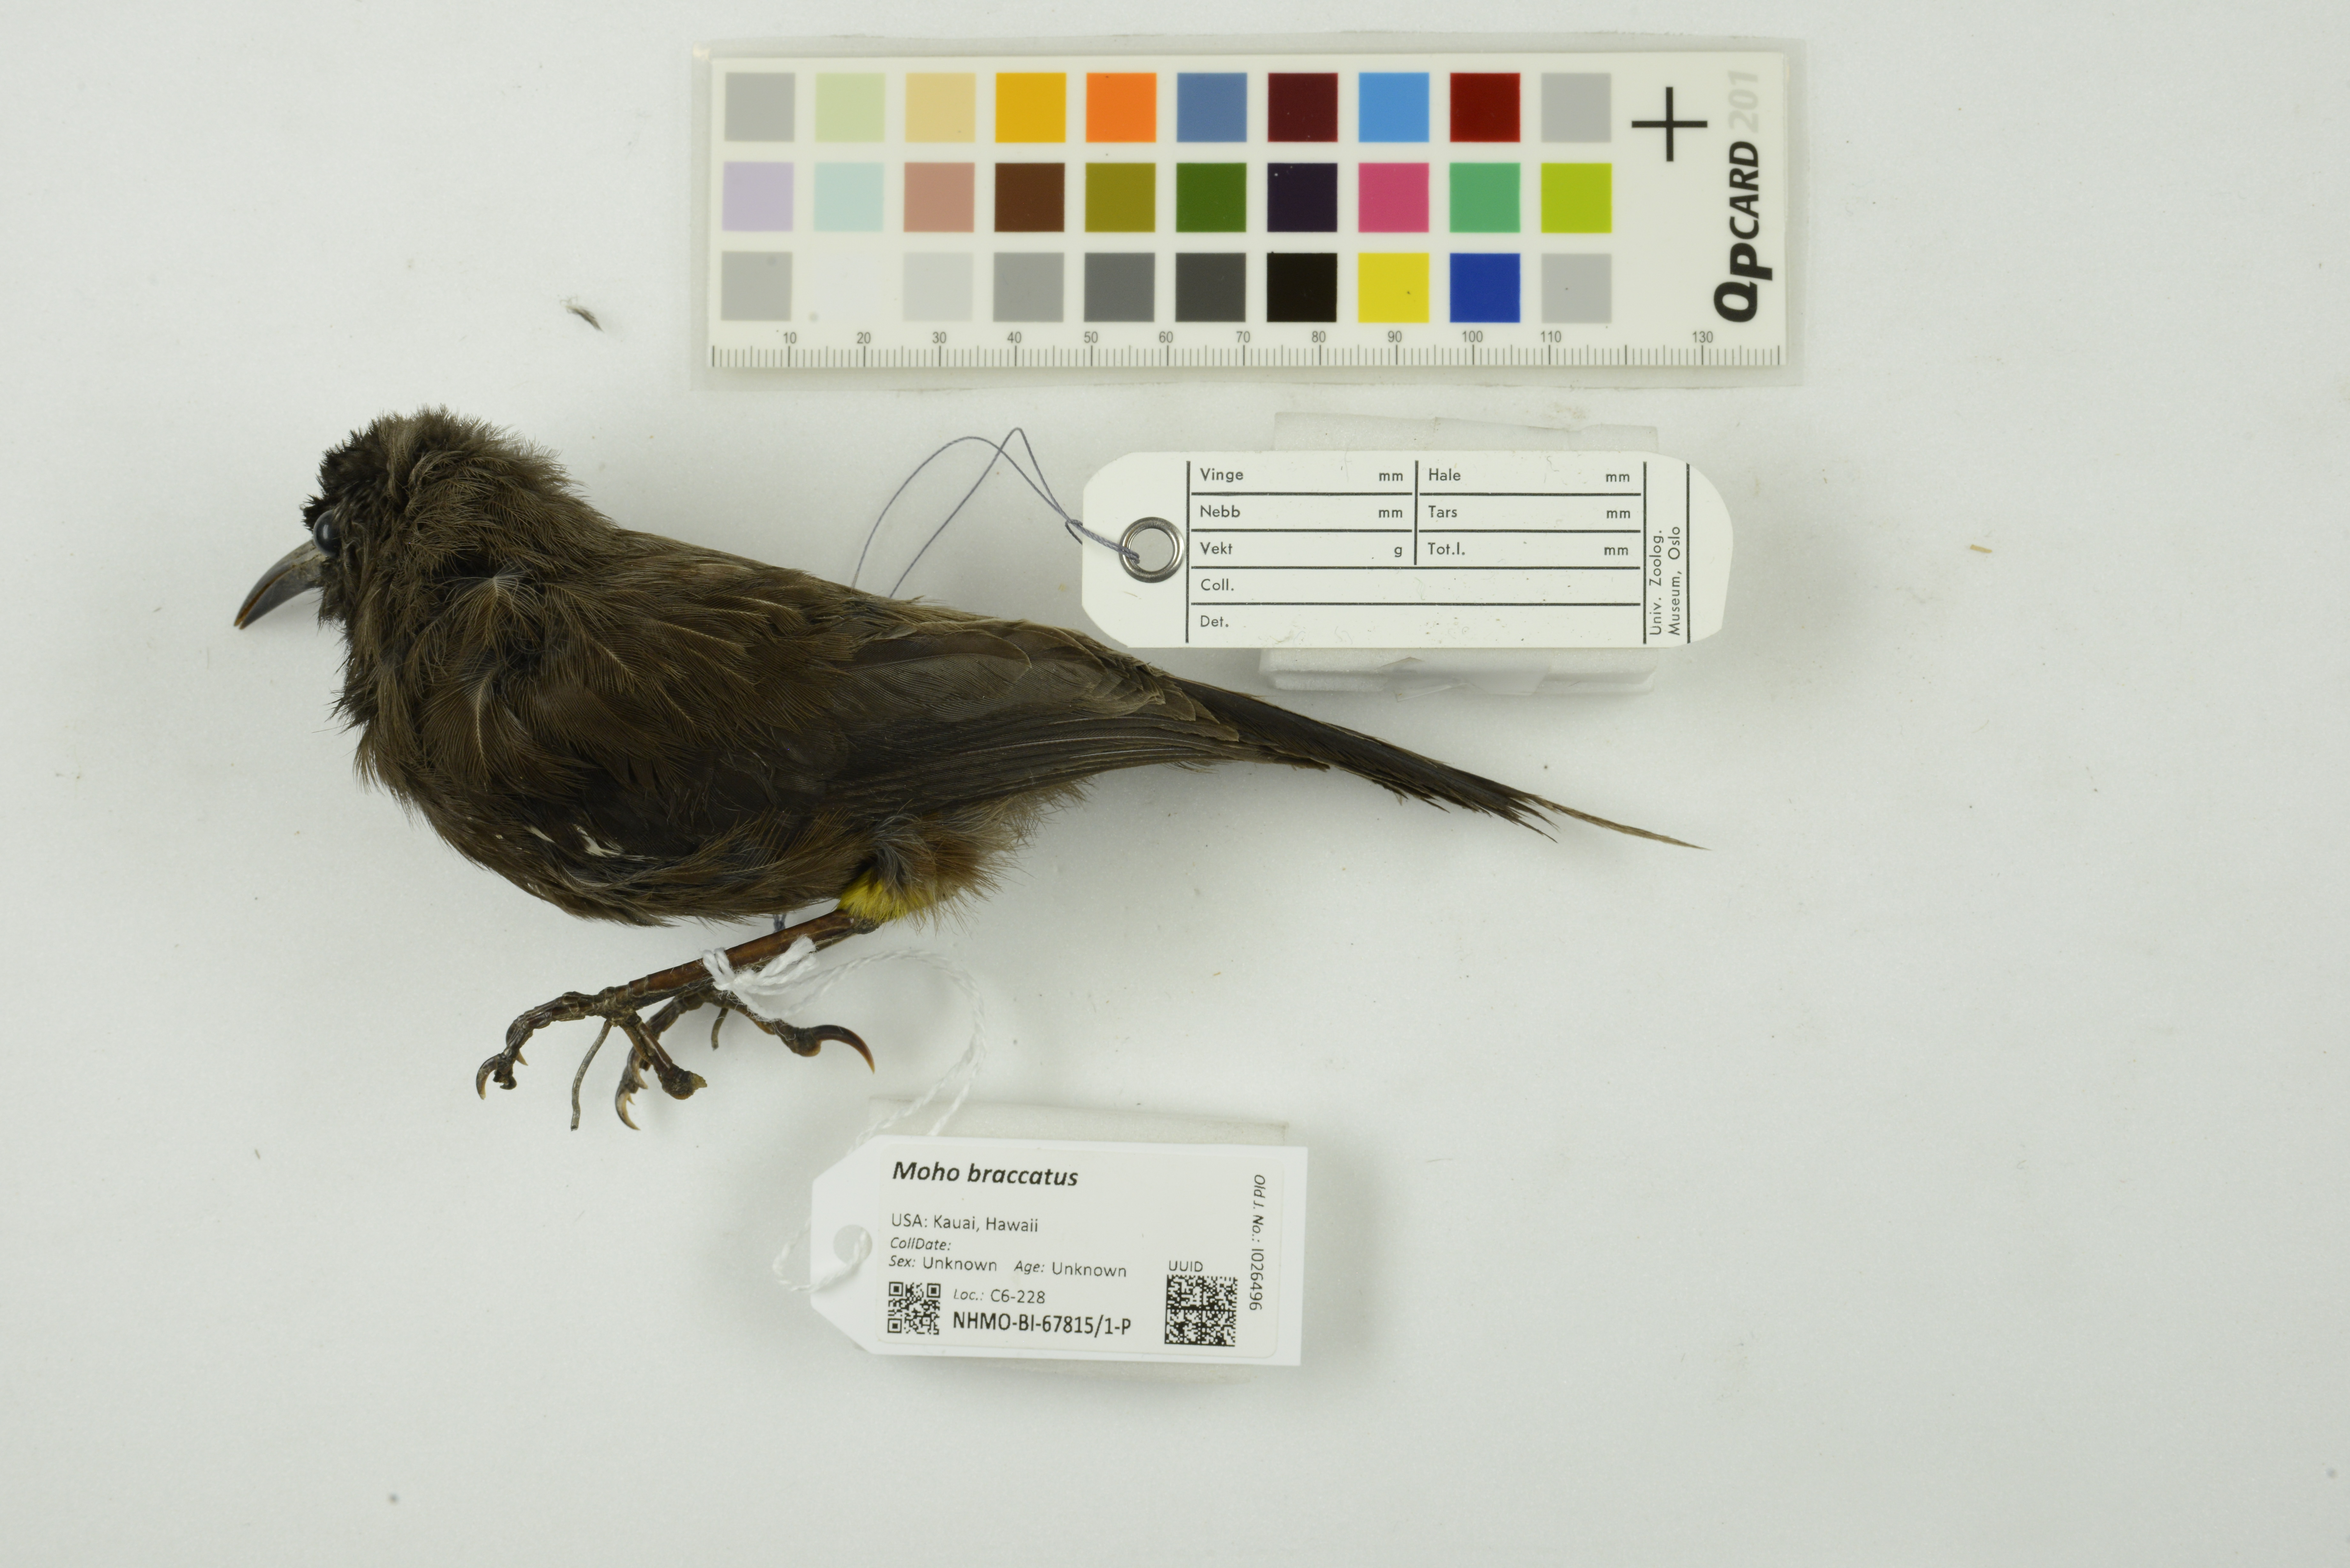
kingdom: Animalia
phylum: Chordata
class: Aves
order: Passeriformes
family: Mohoidae
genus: Moho
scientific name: Moho braccatus
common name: Kauai oo
